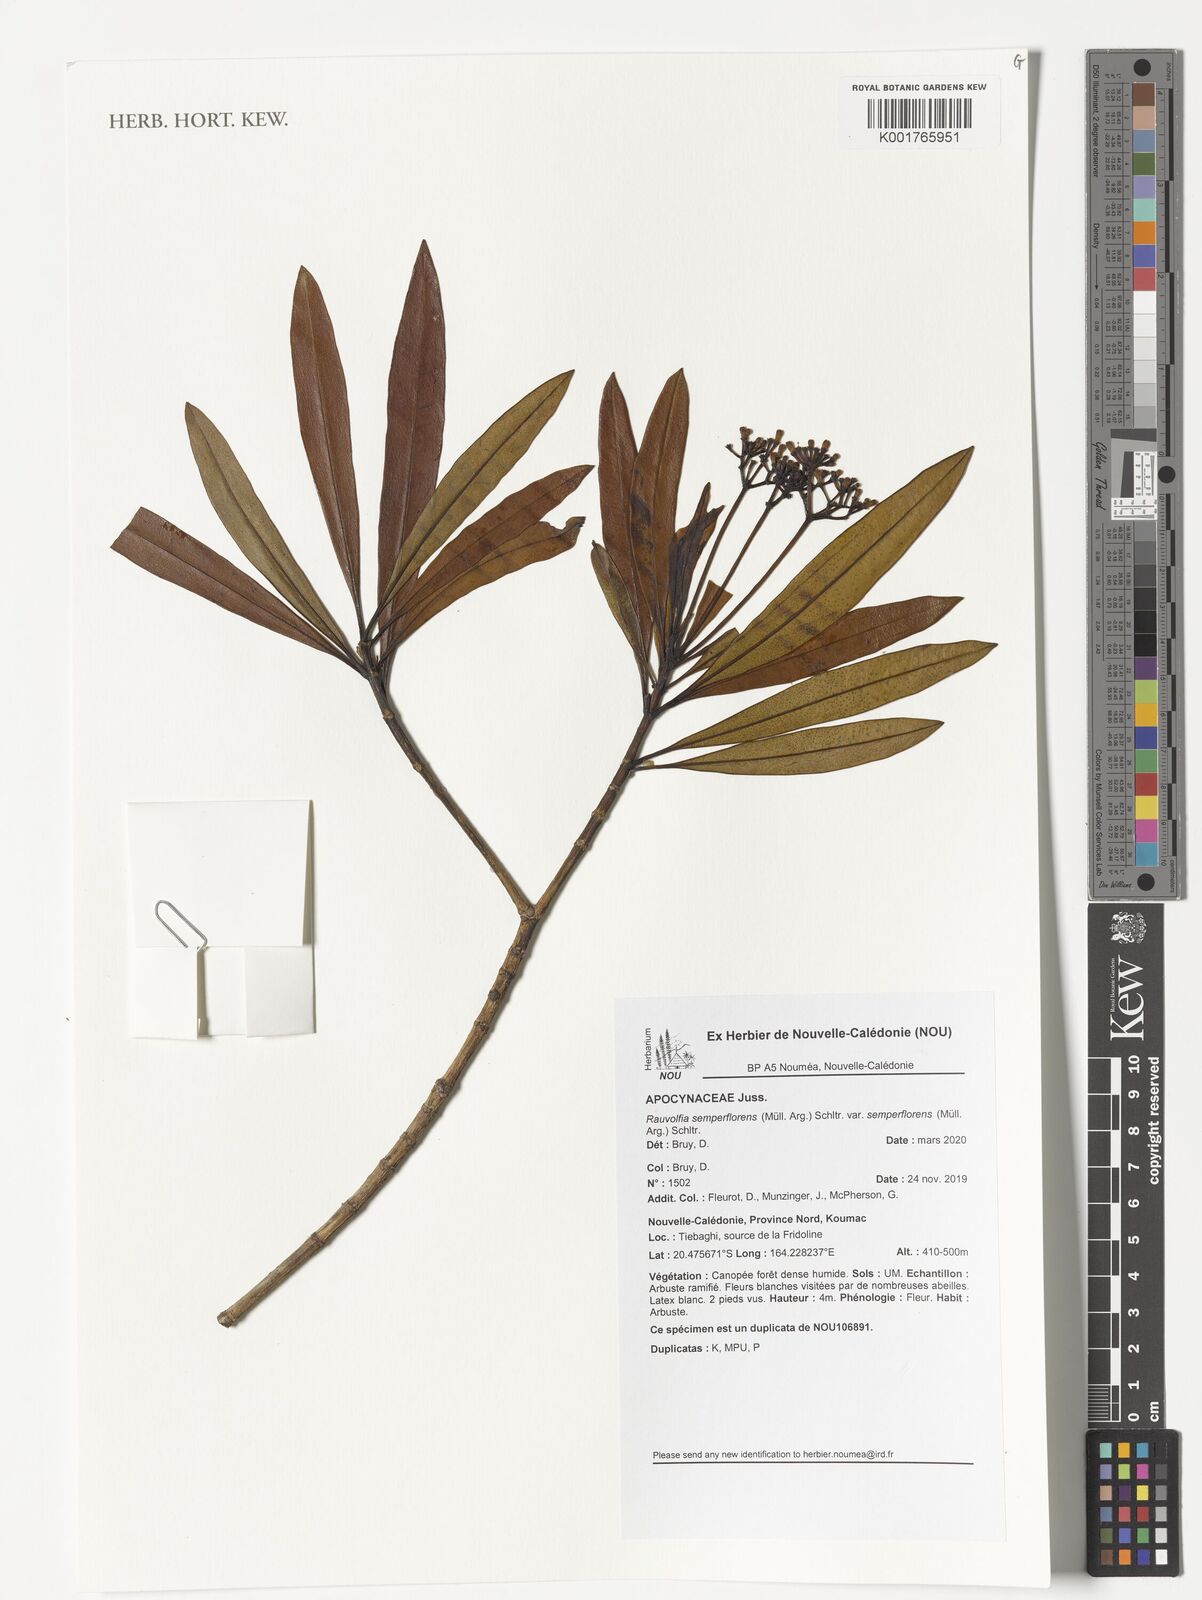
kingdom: Plantae
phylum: Tracheophyta
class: Magnoliopsida
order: Gentianales
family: Apocynaceae
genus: Rauvolfia
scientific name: Rauvolfia semperflorens
